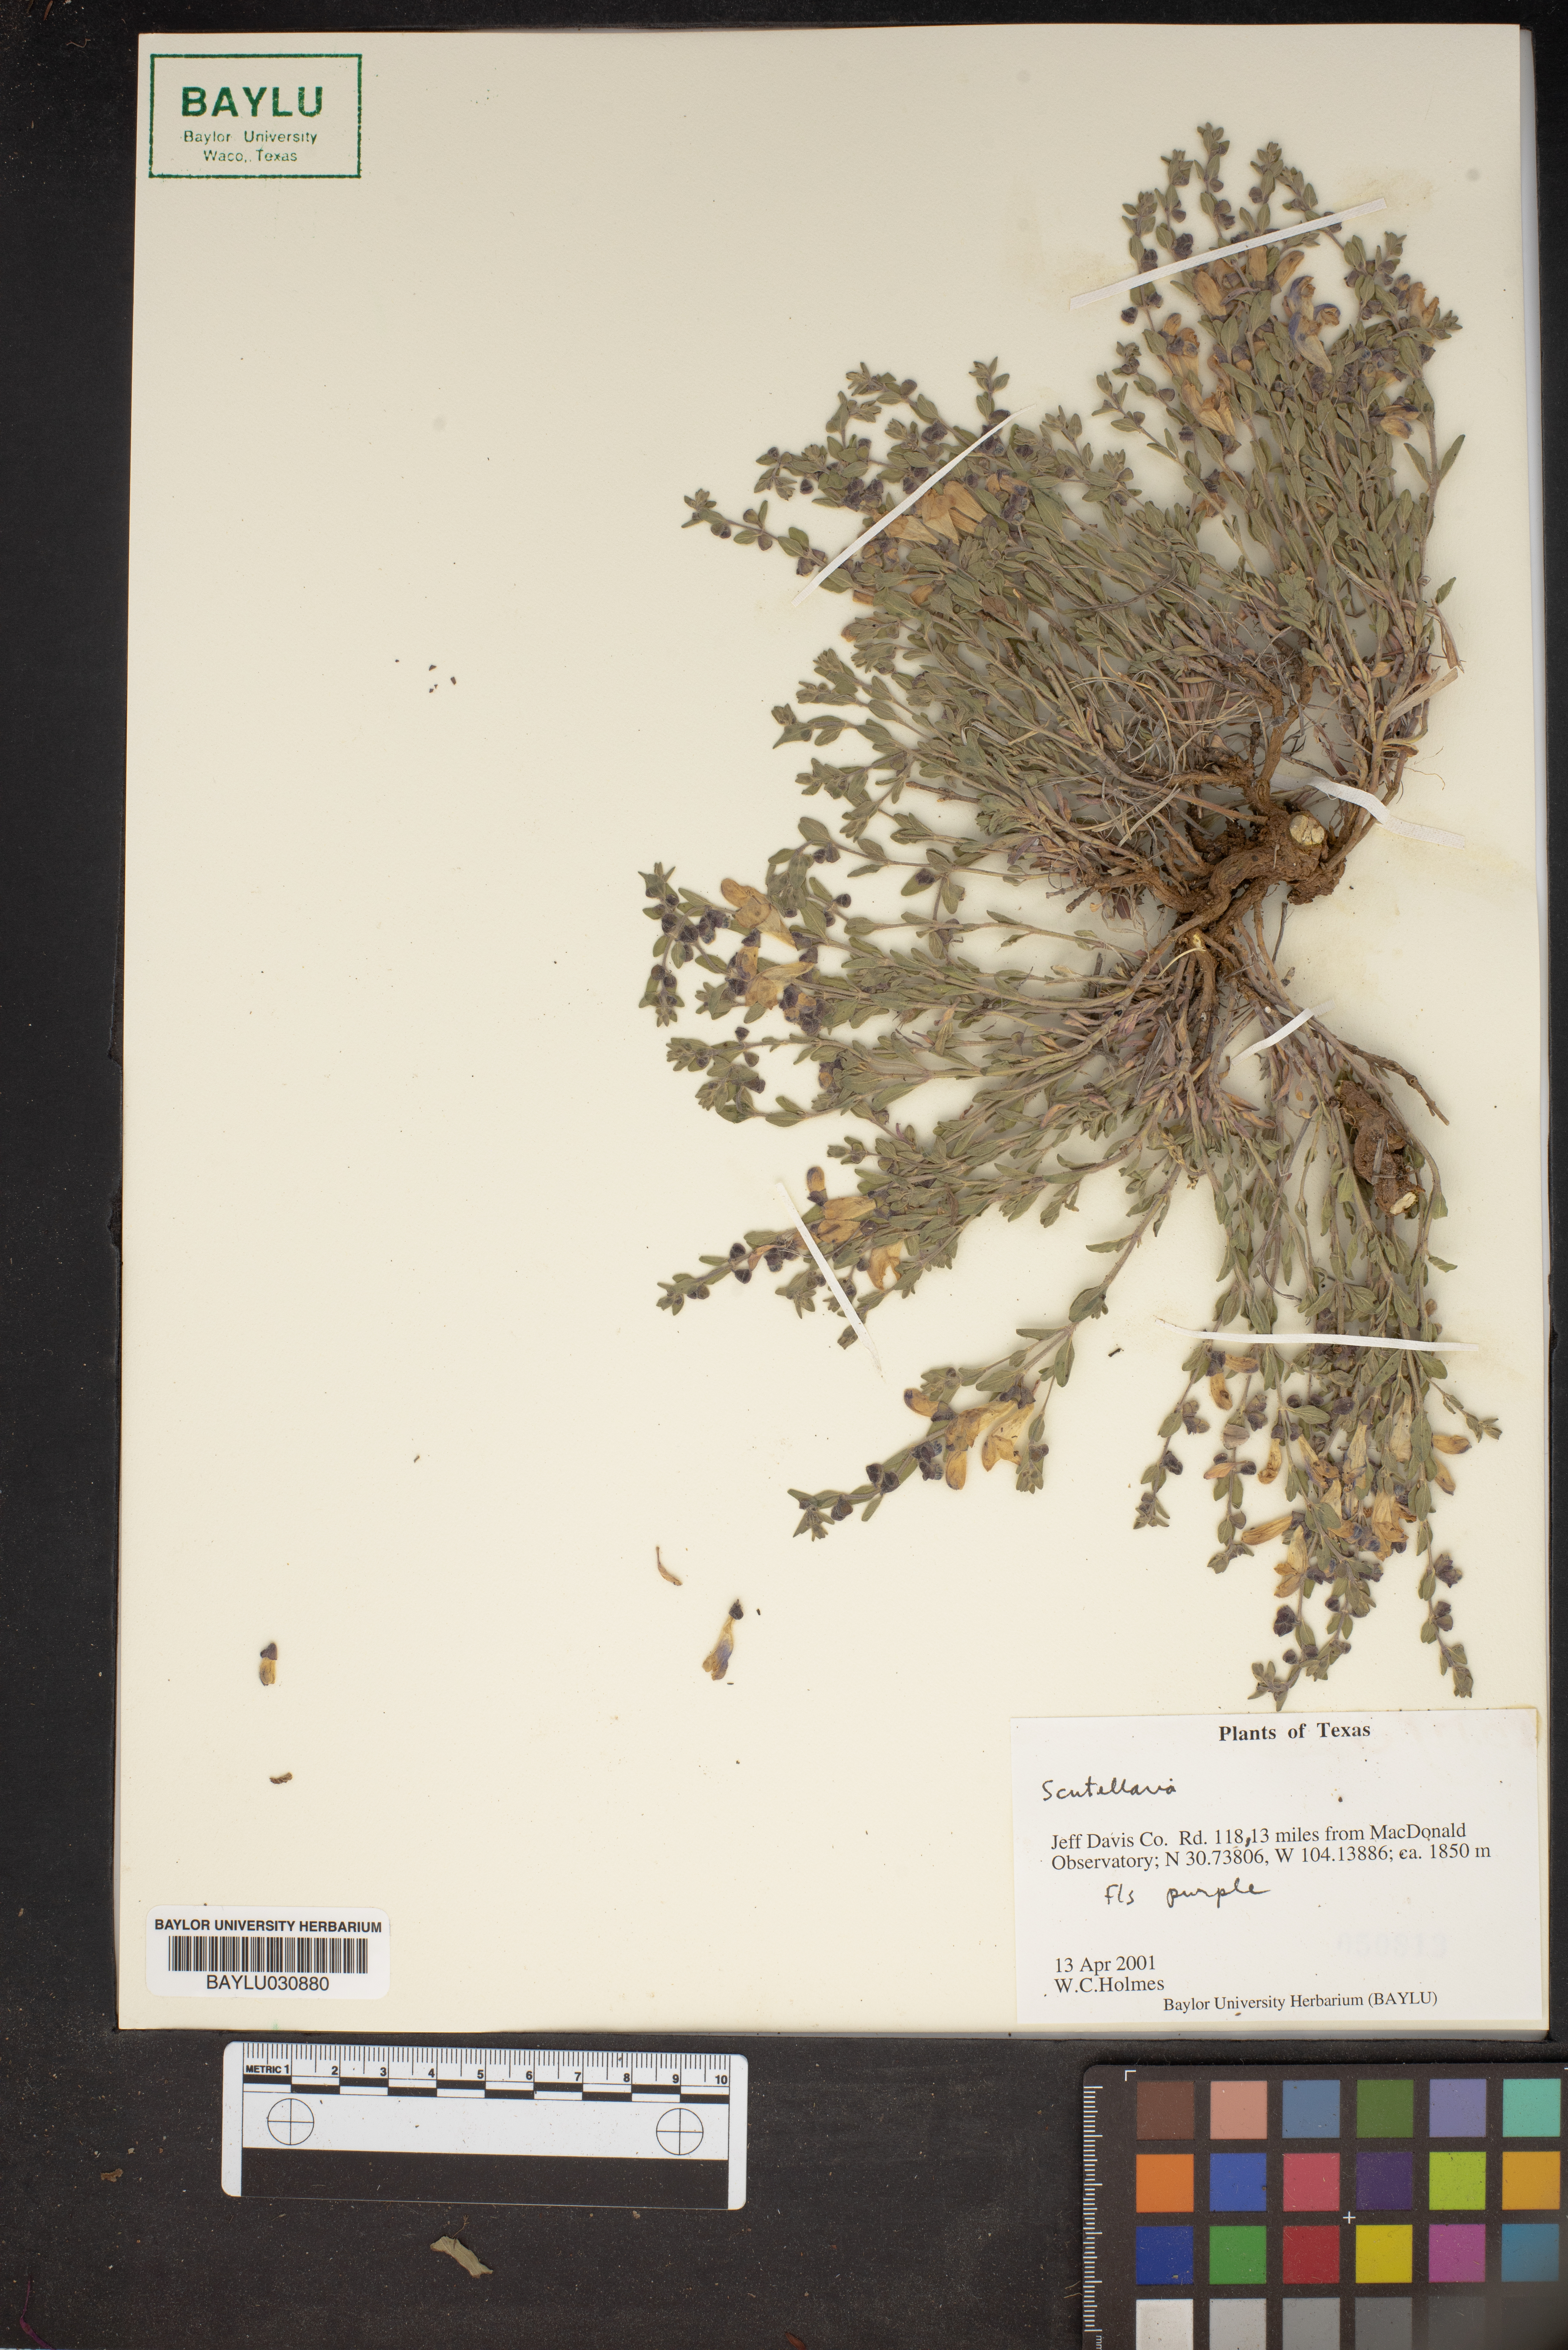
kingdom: Plantae
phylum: Tracheophyta
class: Magnoliopsida
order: Lamiales
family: Lamiaceae
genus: Scutellaria
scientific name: Scutellaria
